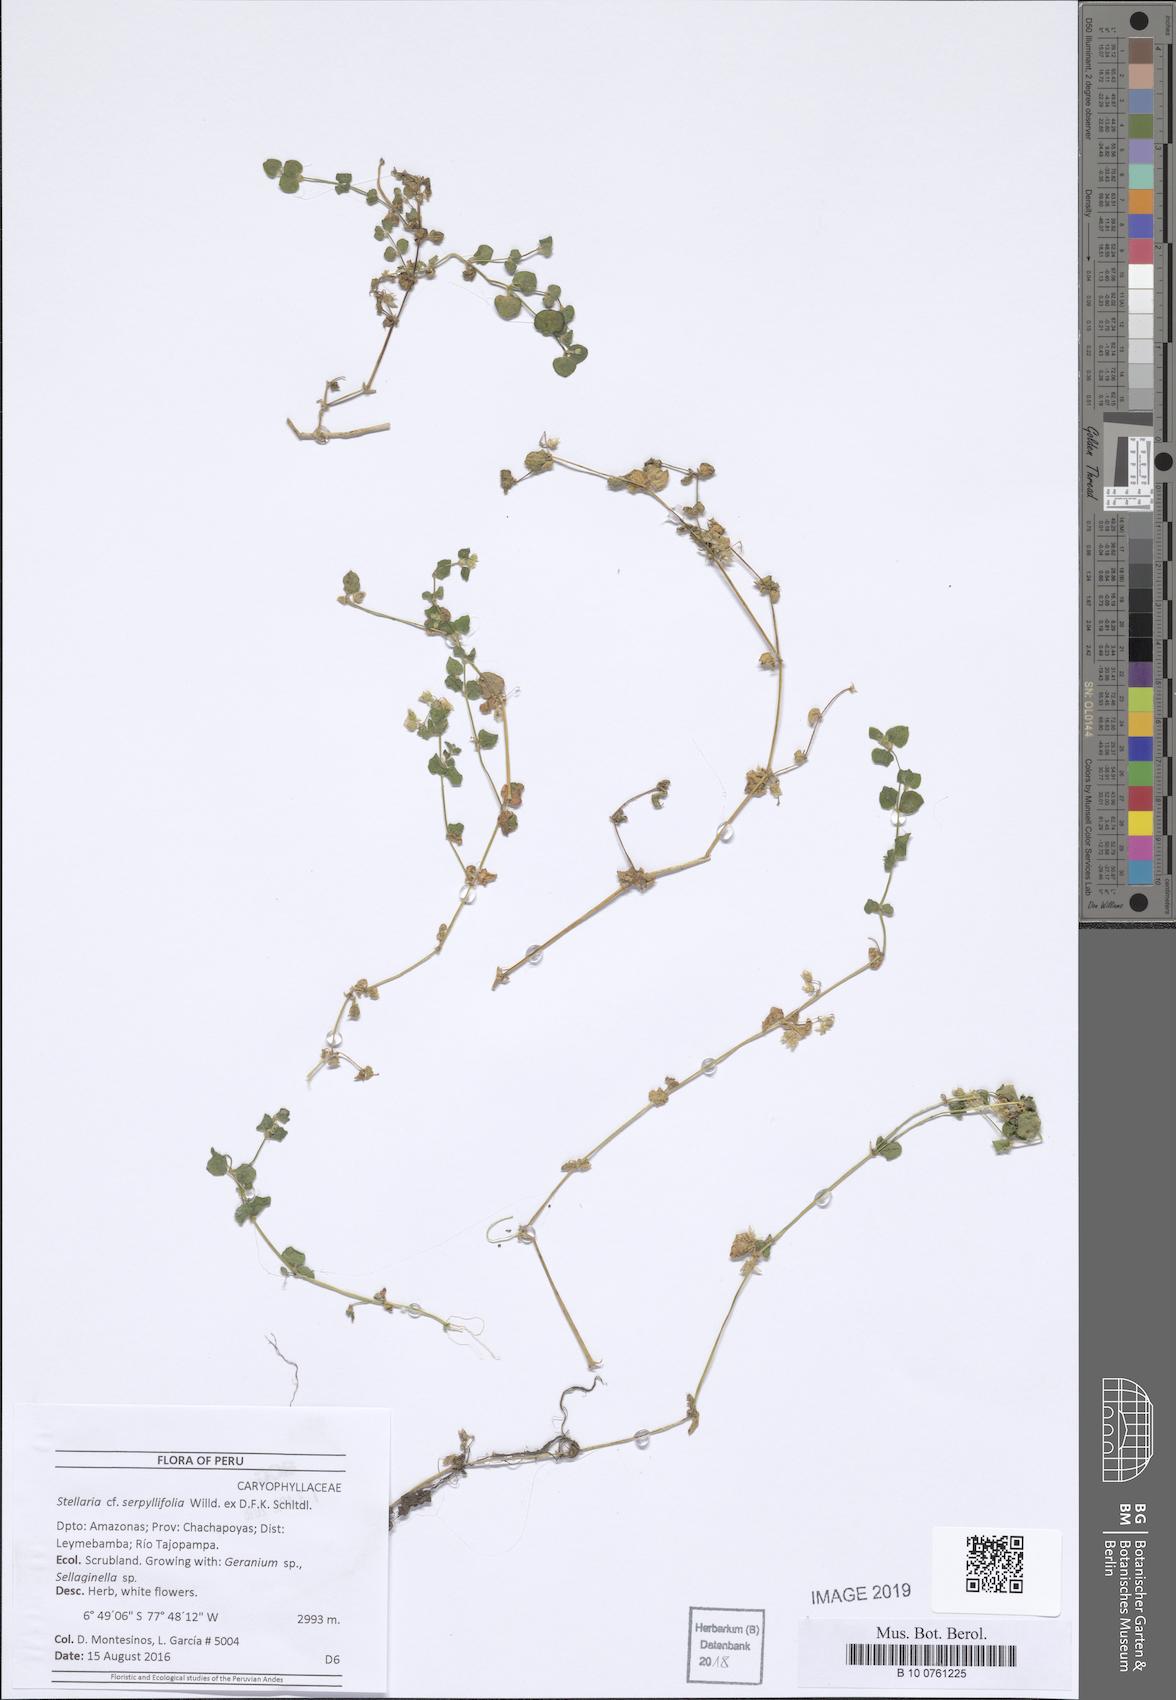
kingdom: Plantae
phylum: Tracheophyta
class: Magnoliopsida
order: Caryophyllales
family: Caryophyllaceae
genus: Stellaria
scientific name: Stellaria recurvata
